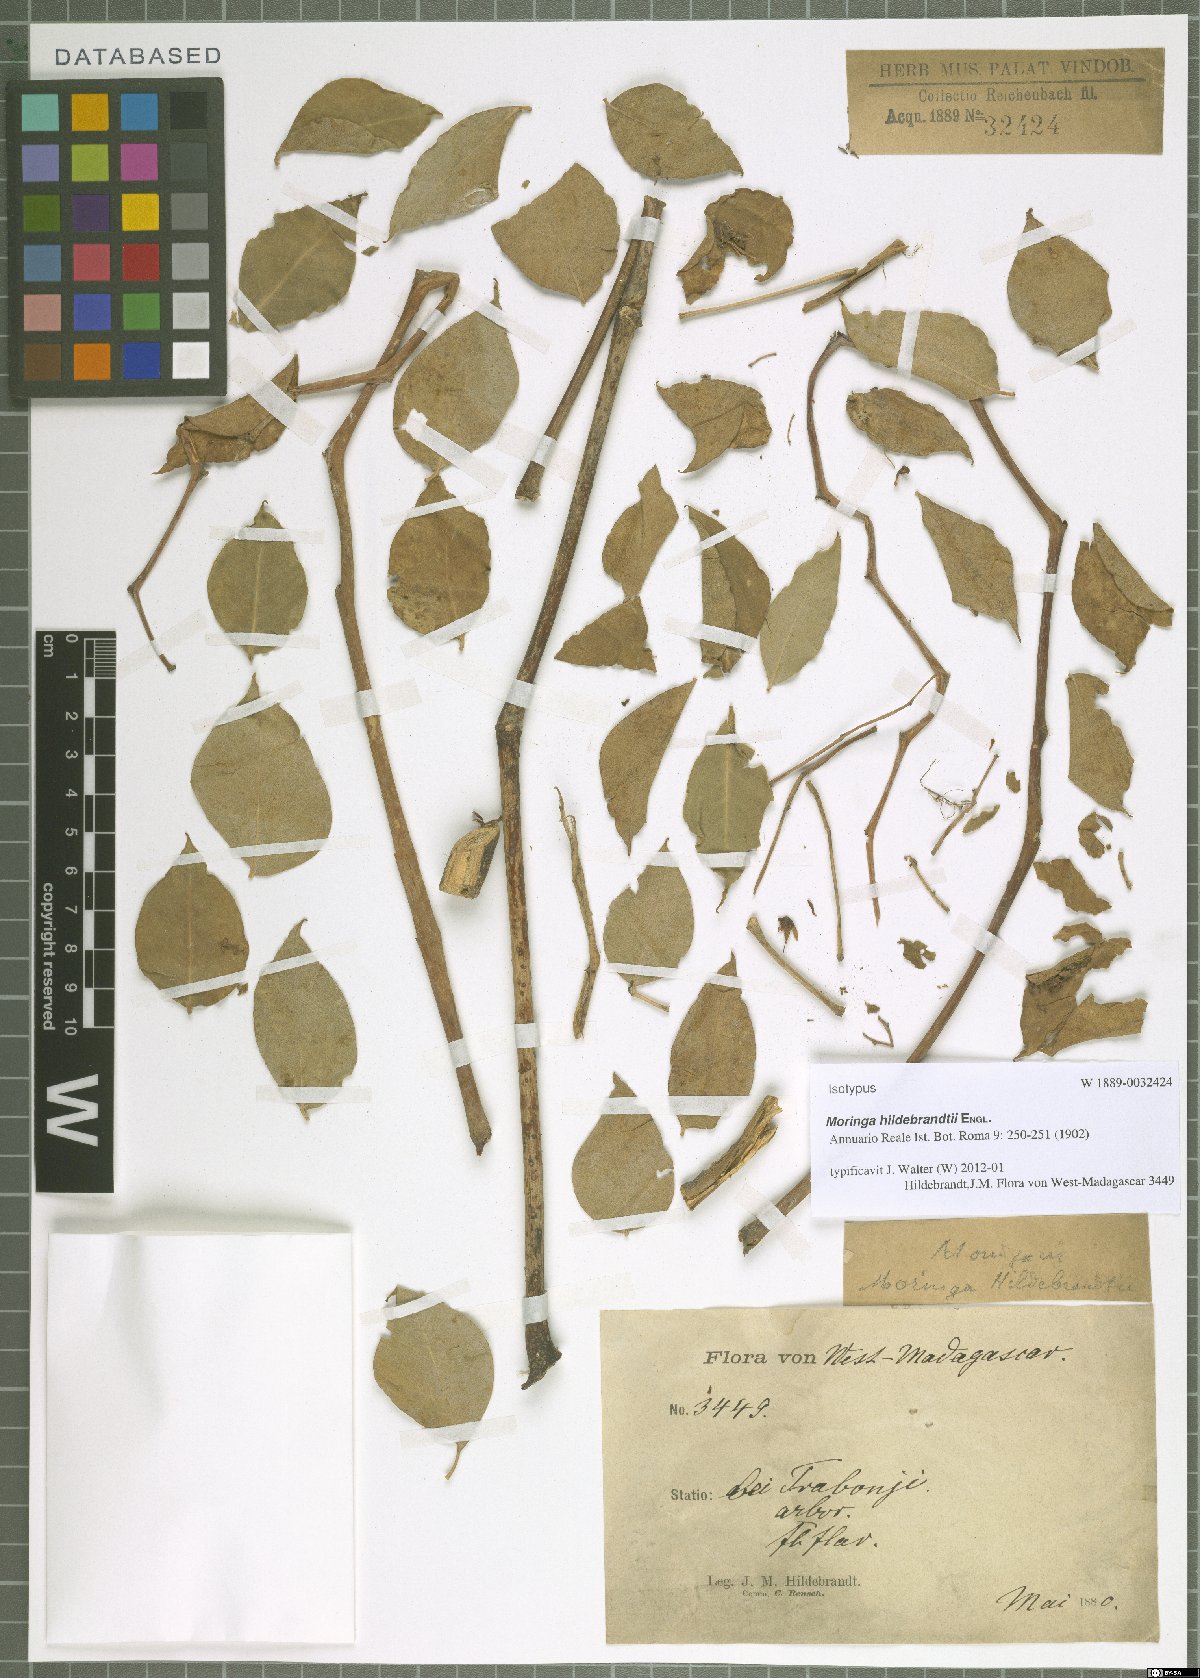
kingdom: Plantae
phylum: Tracheophyta
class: Magnoliopsida
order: Brassicales
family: Moringaceae
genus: Moringa
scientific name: Moringa hildebrandtii
